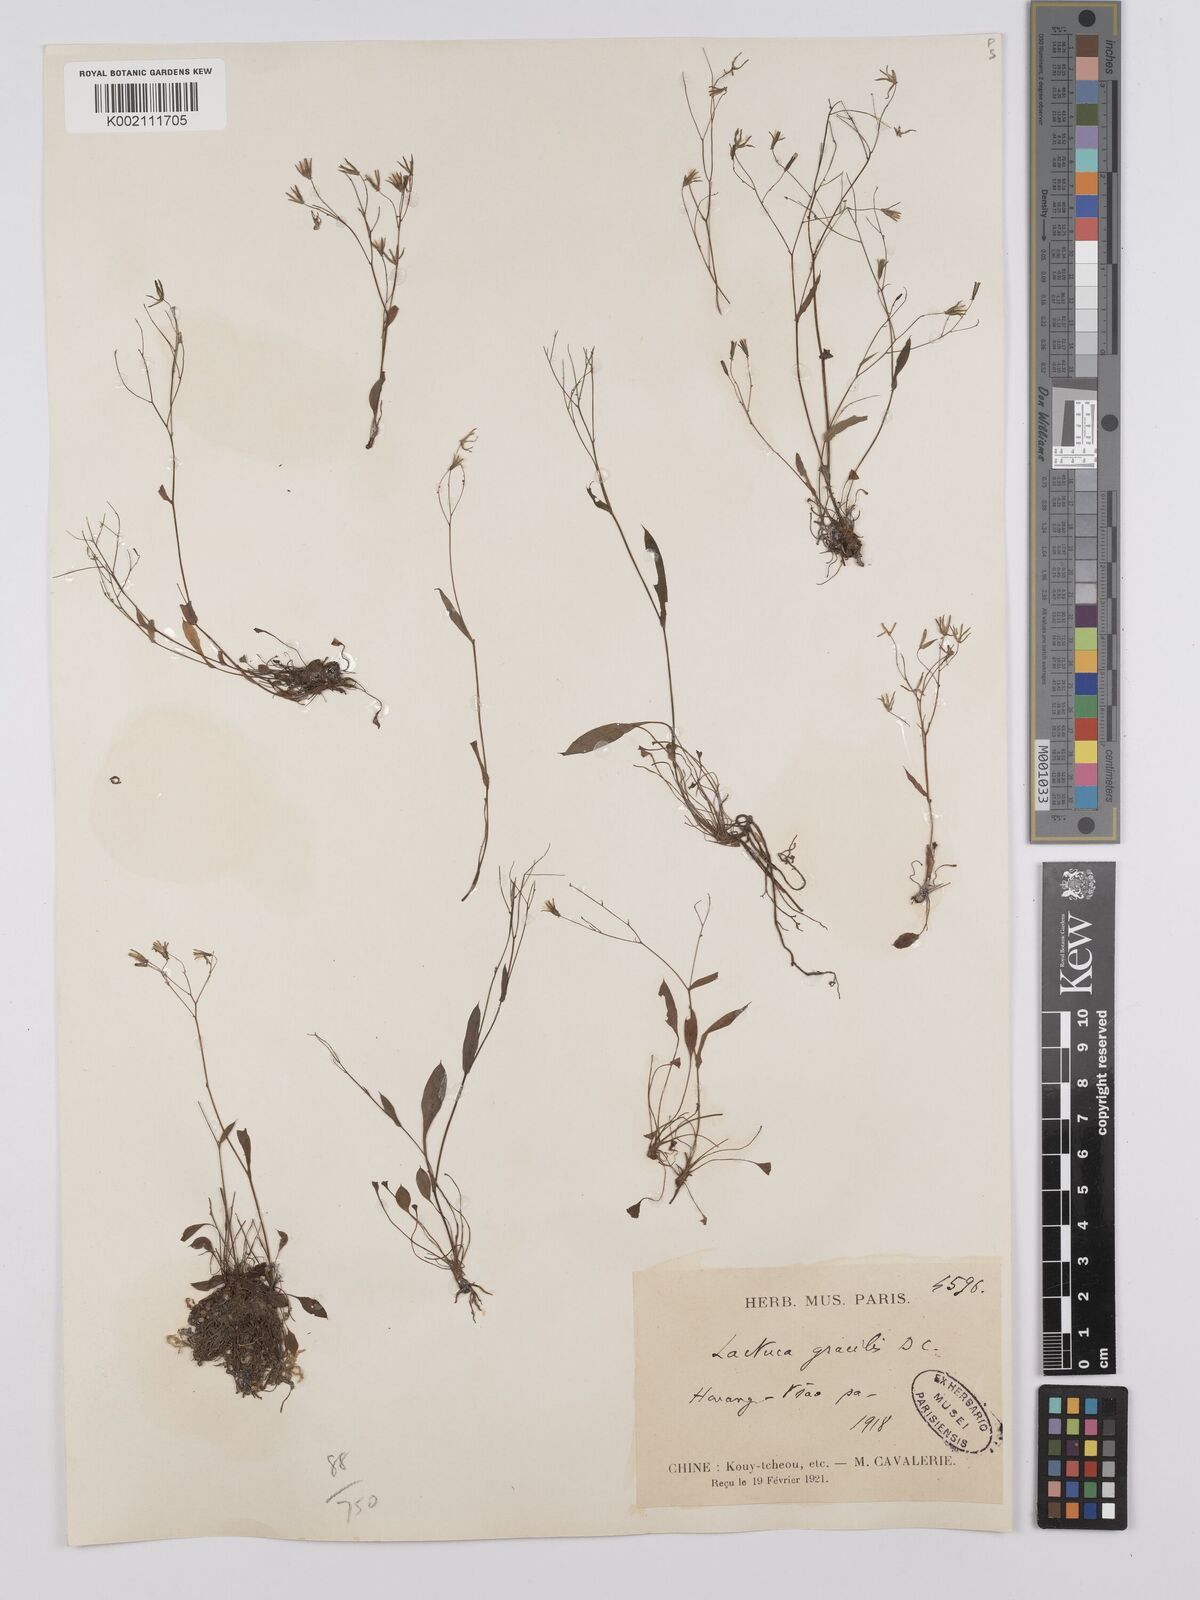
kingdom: Plantae
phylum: Tracheophyta
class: Magnoliopsida
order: Asterales
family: Asteraceae
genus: Ixeridium
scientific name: Ixeridium
